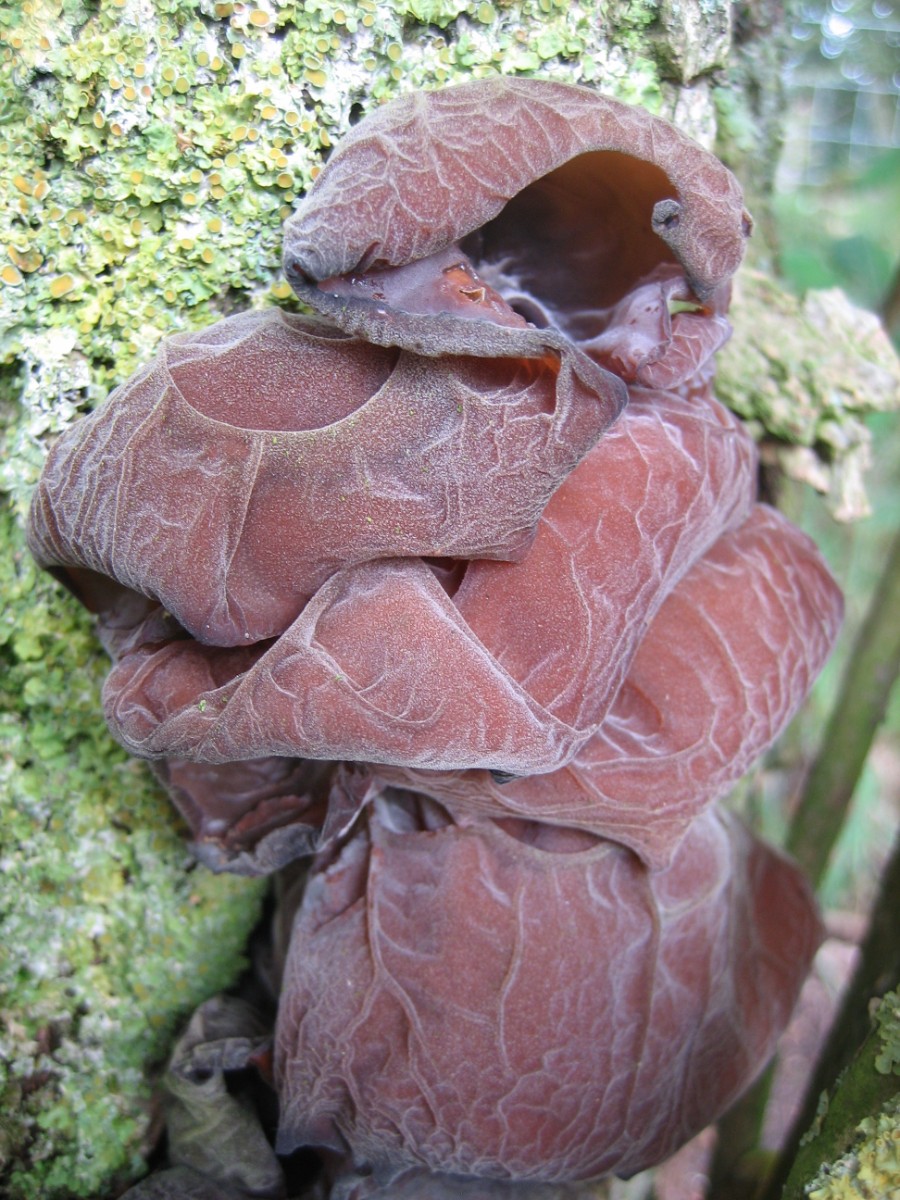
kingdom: Fungi
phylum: Basidiomycota
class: Agaricomycetes
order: Auriculariales
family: Auriculariaceae
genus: Auricularia
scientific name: Auricularia auricula-judae
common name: almindelig judasøre
